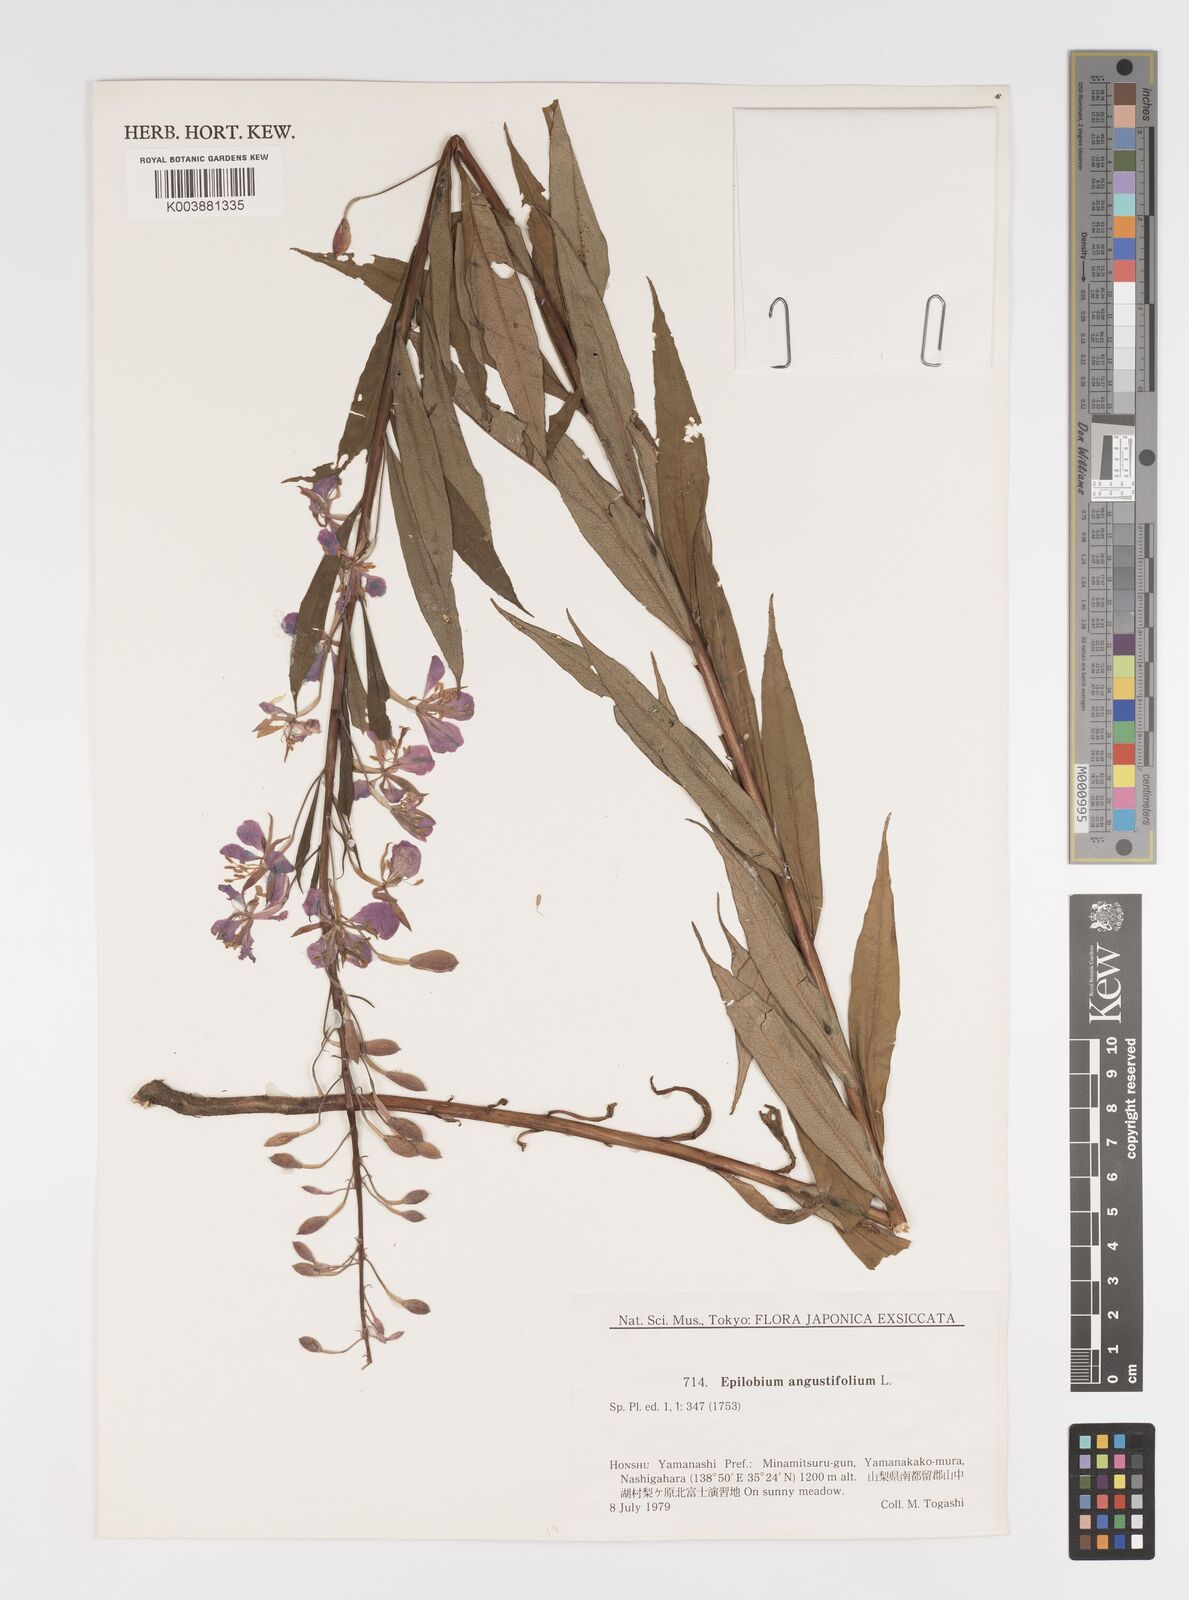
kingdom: Plantae
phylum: Tracheophyta
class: Magnoliopsida
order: Myrtales
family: Onagraceae
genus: Chamaenerion
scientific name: Chamaenerion angustifolium
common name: Fireweed
